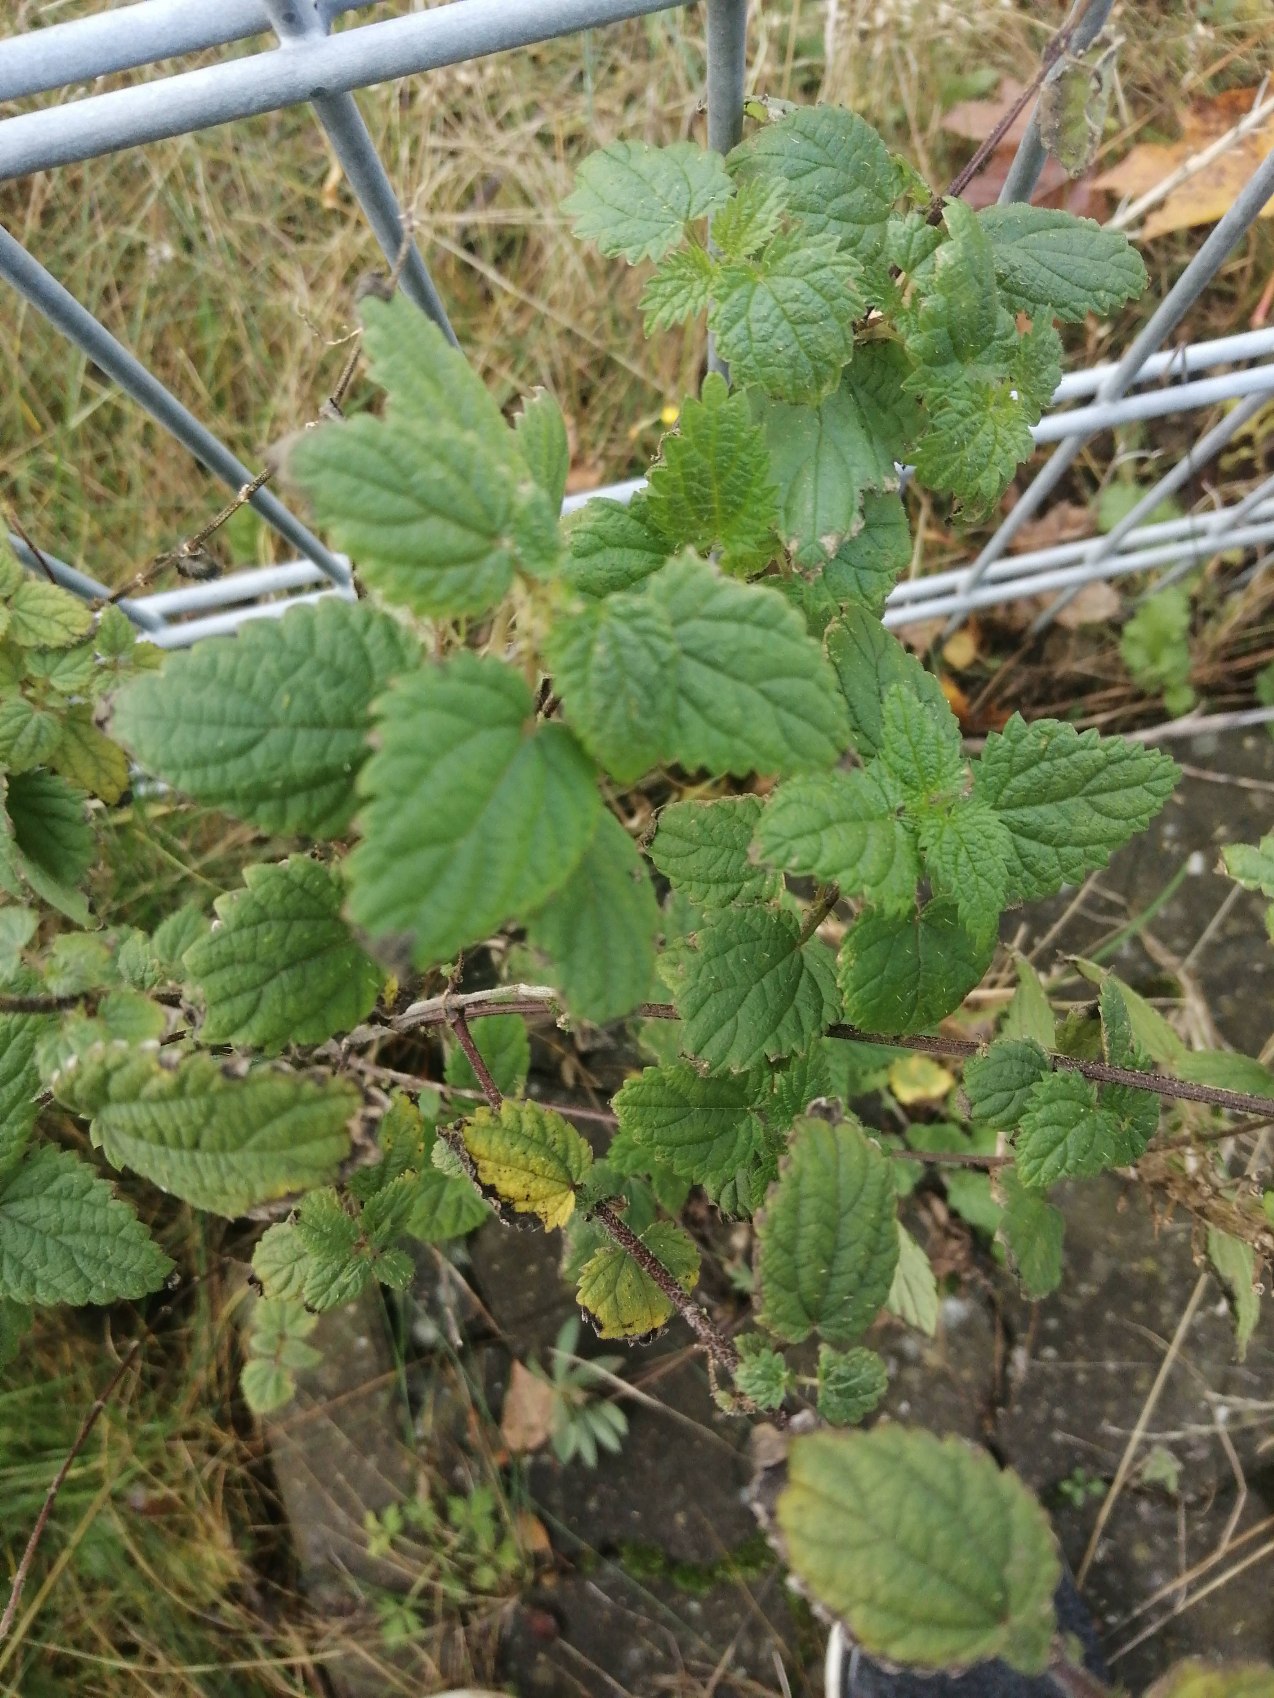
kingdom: Plantae
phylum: Tracheophyta
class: Magnoliopsida
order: Rosales
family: Urticaceae
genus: Urtica
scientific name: Urtica dioica
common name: Stor nælde
